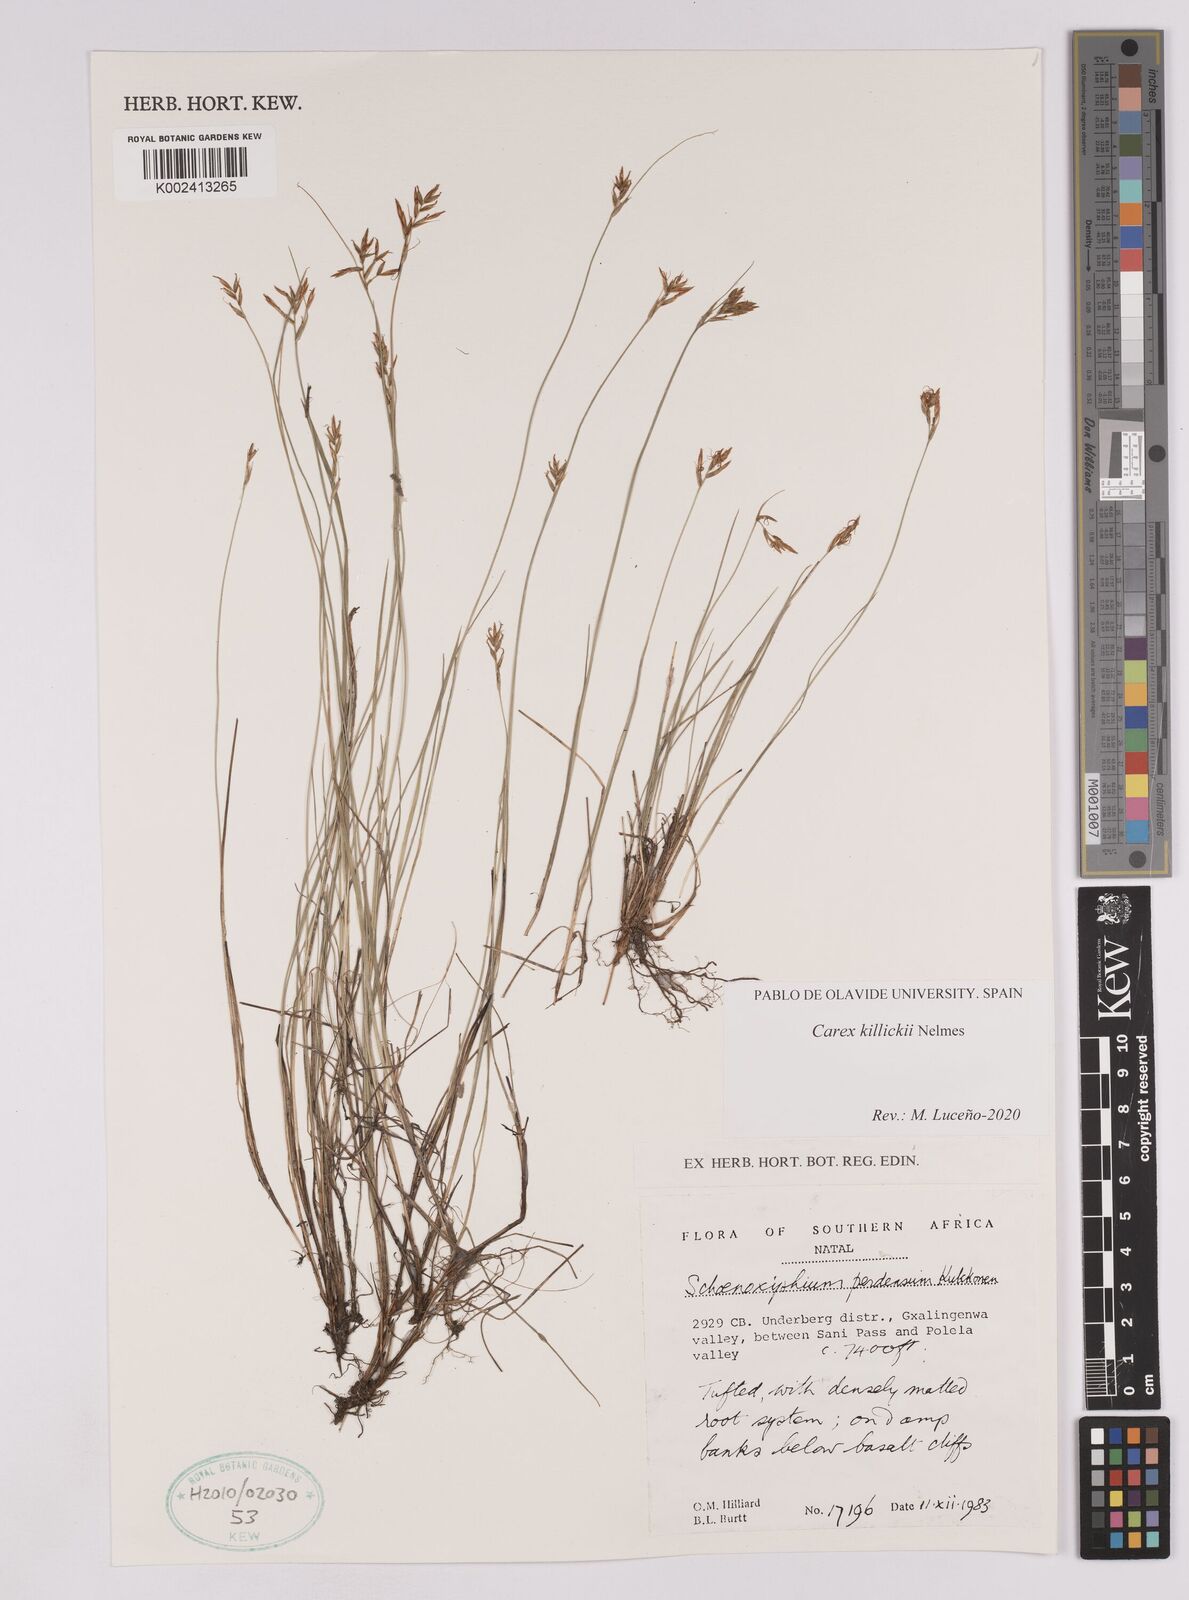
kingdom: Plantae
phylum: Tracheophyta
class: Liliopsida
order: Poales
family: Cyperaceae
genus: Carex
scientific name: Carex
